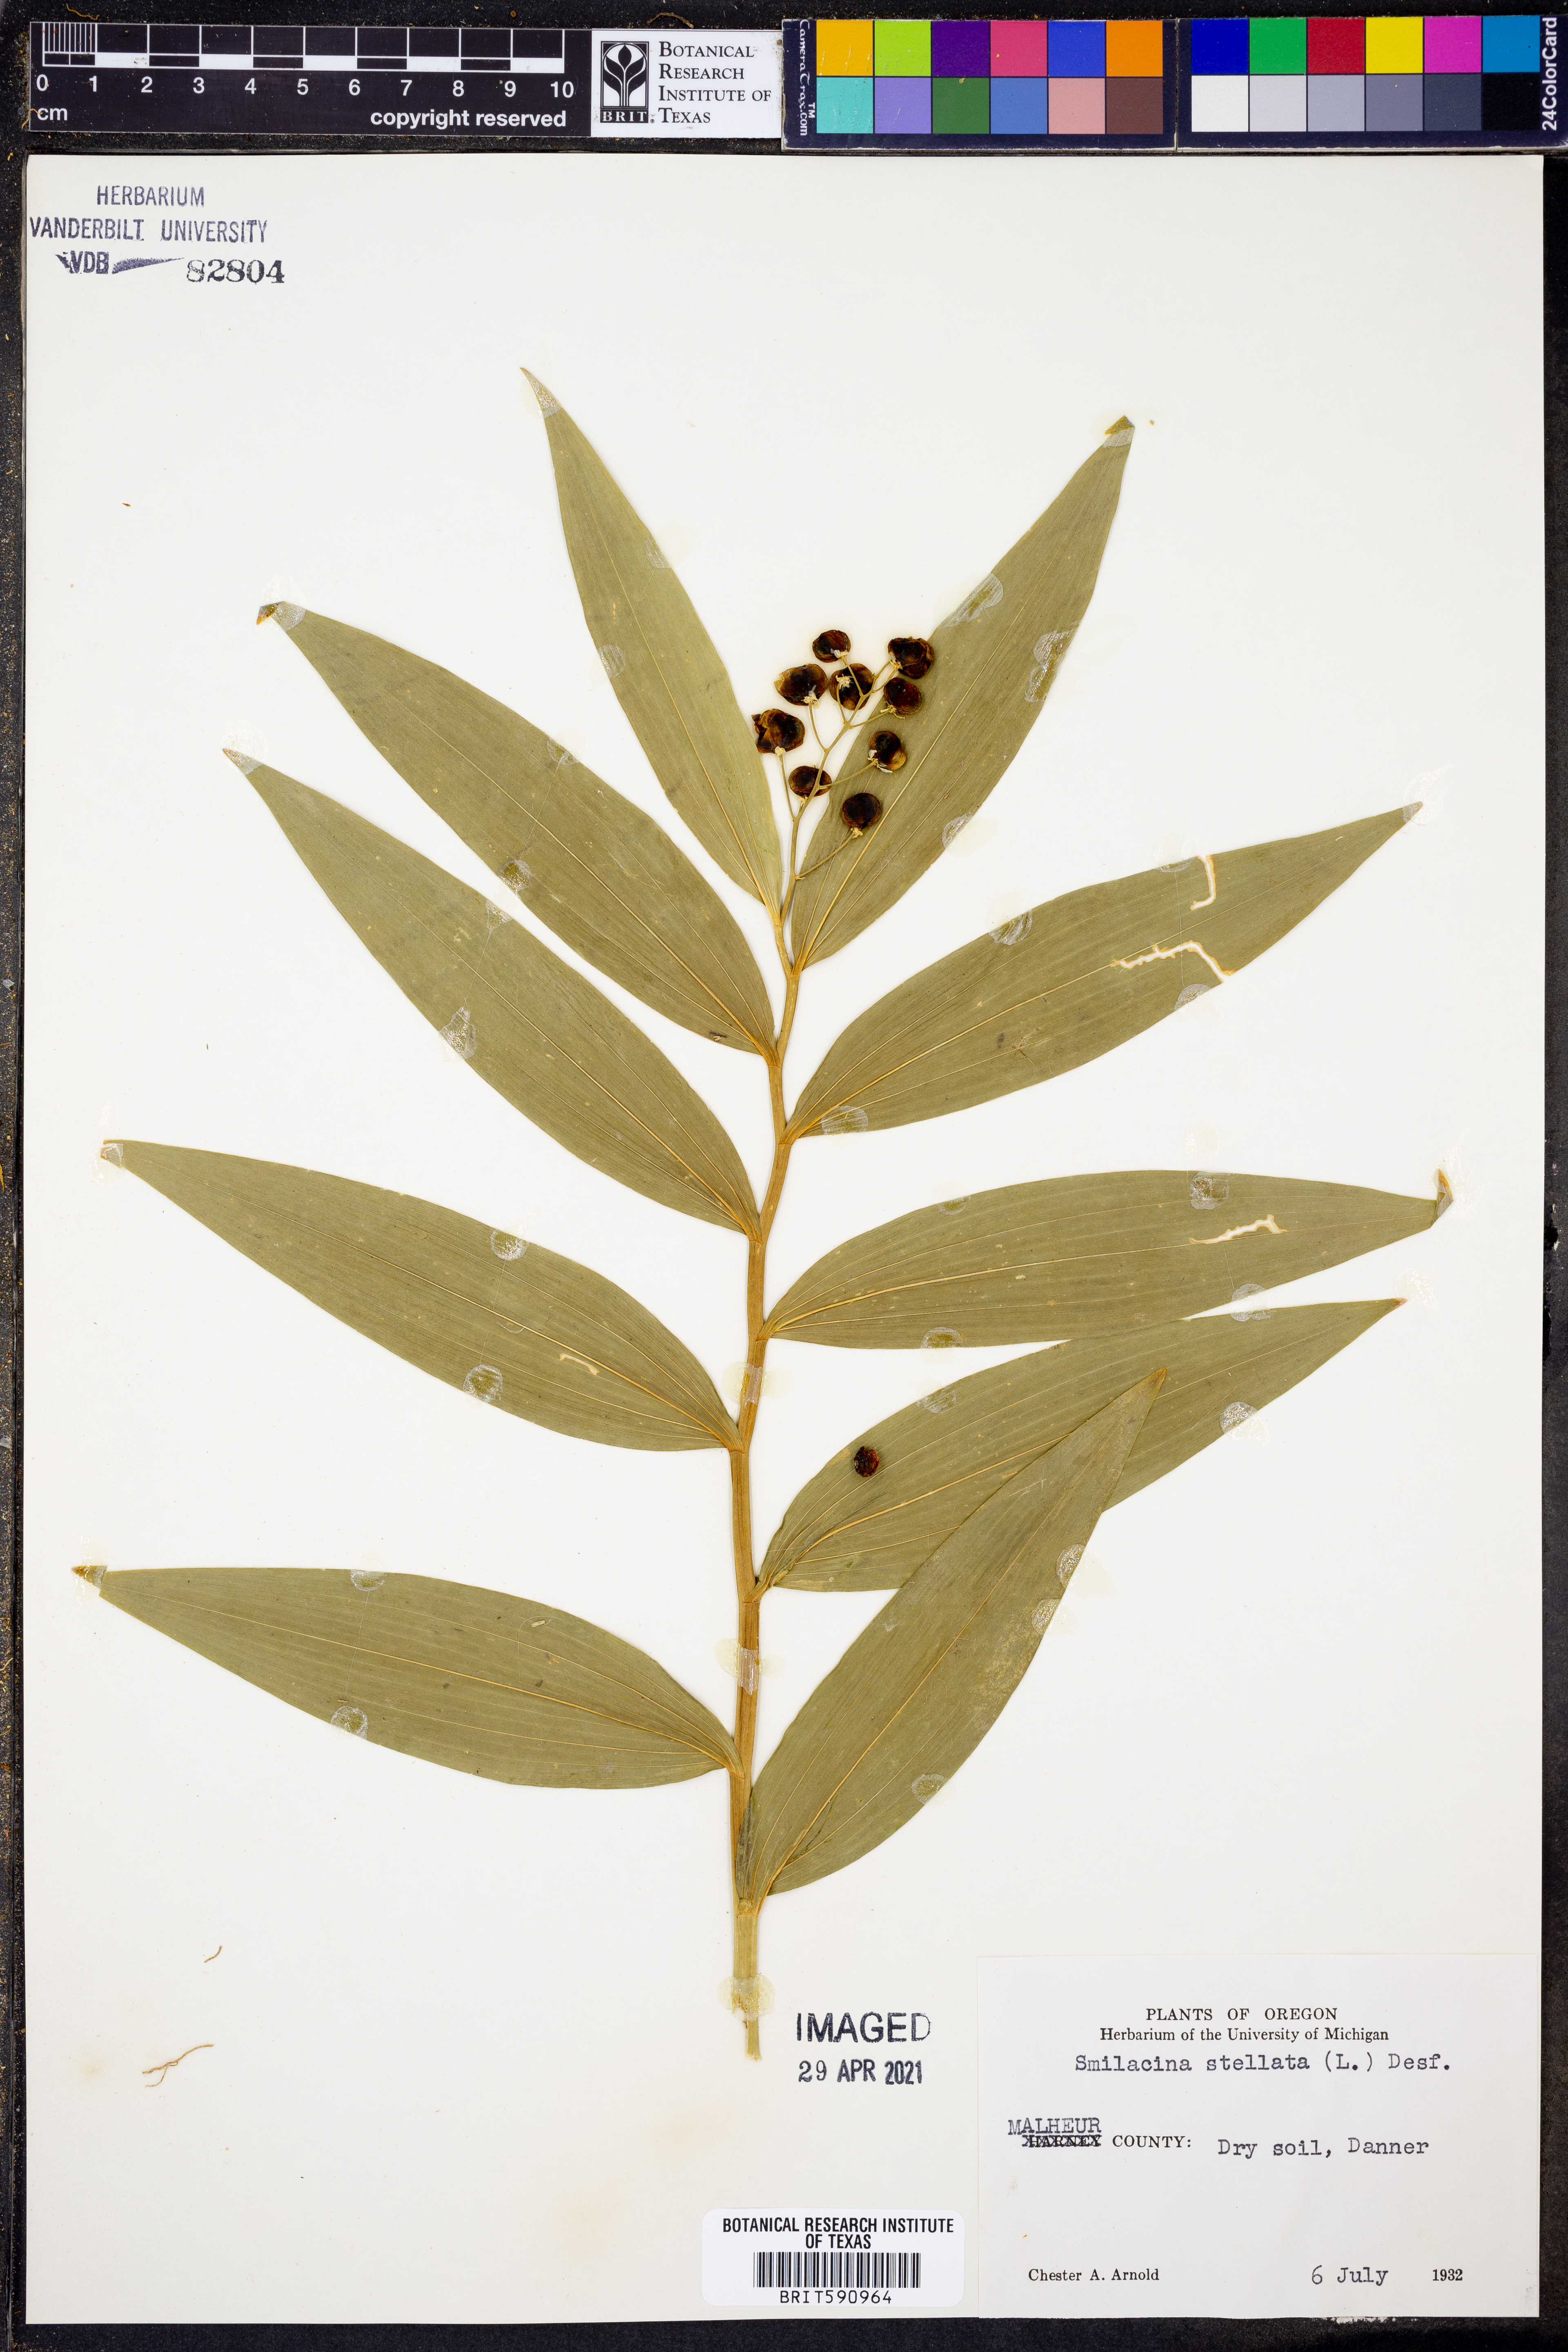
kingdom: Plantae
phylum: Tracheophyta
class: Liliopsida
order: Asparagales
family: Asparagaceae
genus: Maianthemum
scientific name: Maianthemum stellatum
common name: Little false solomon's seal
